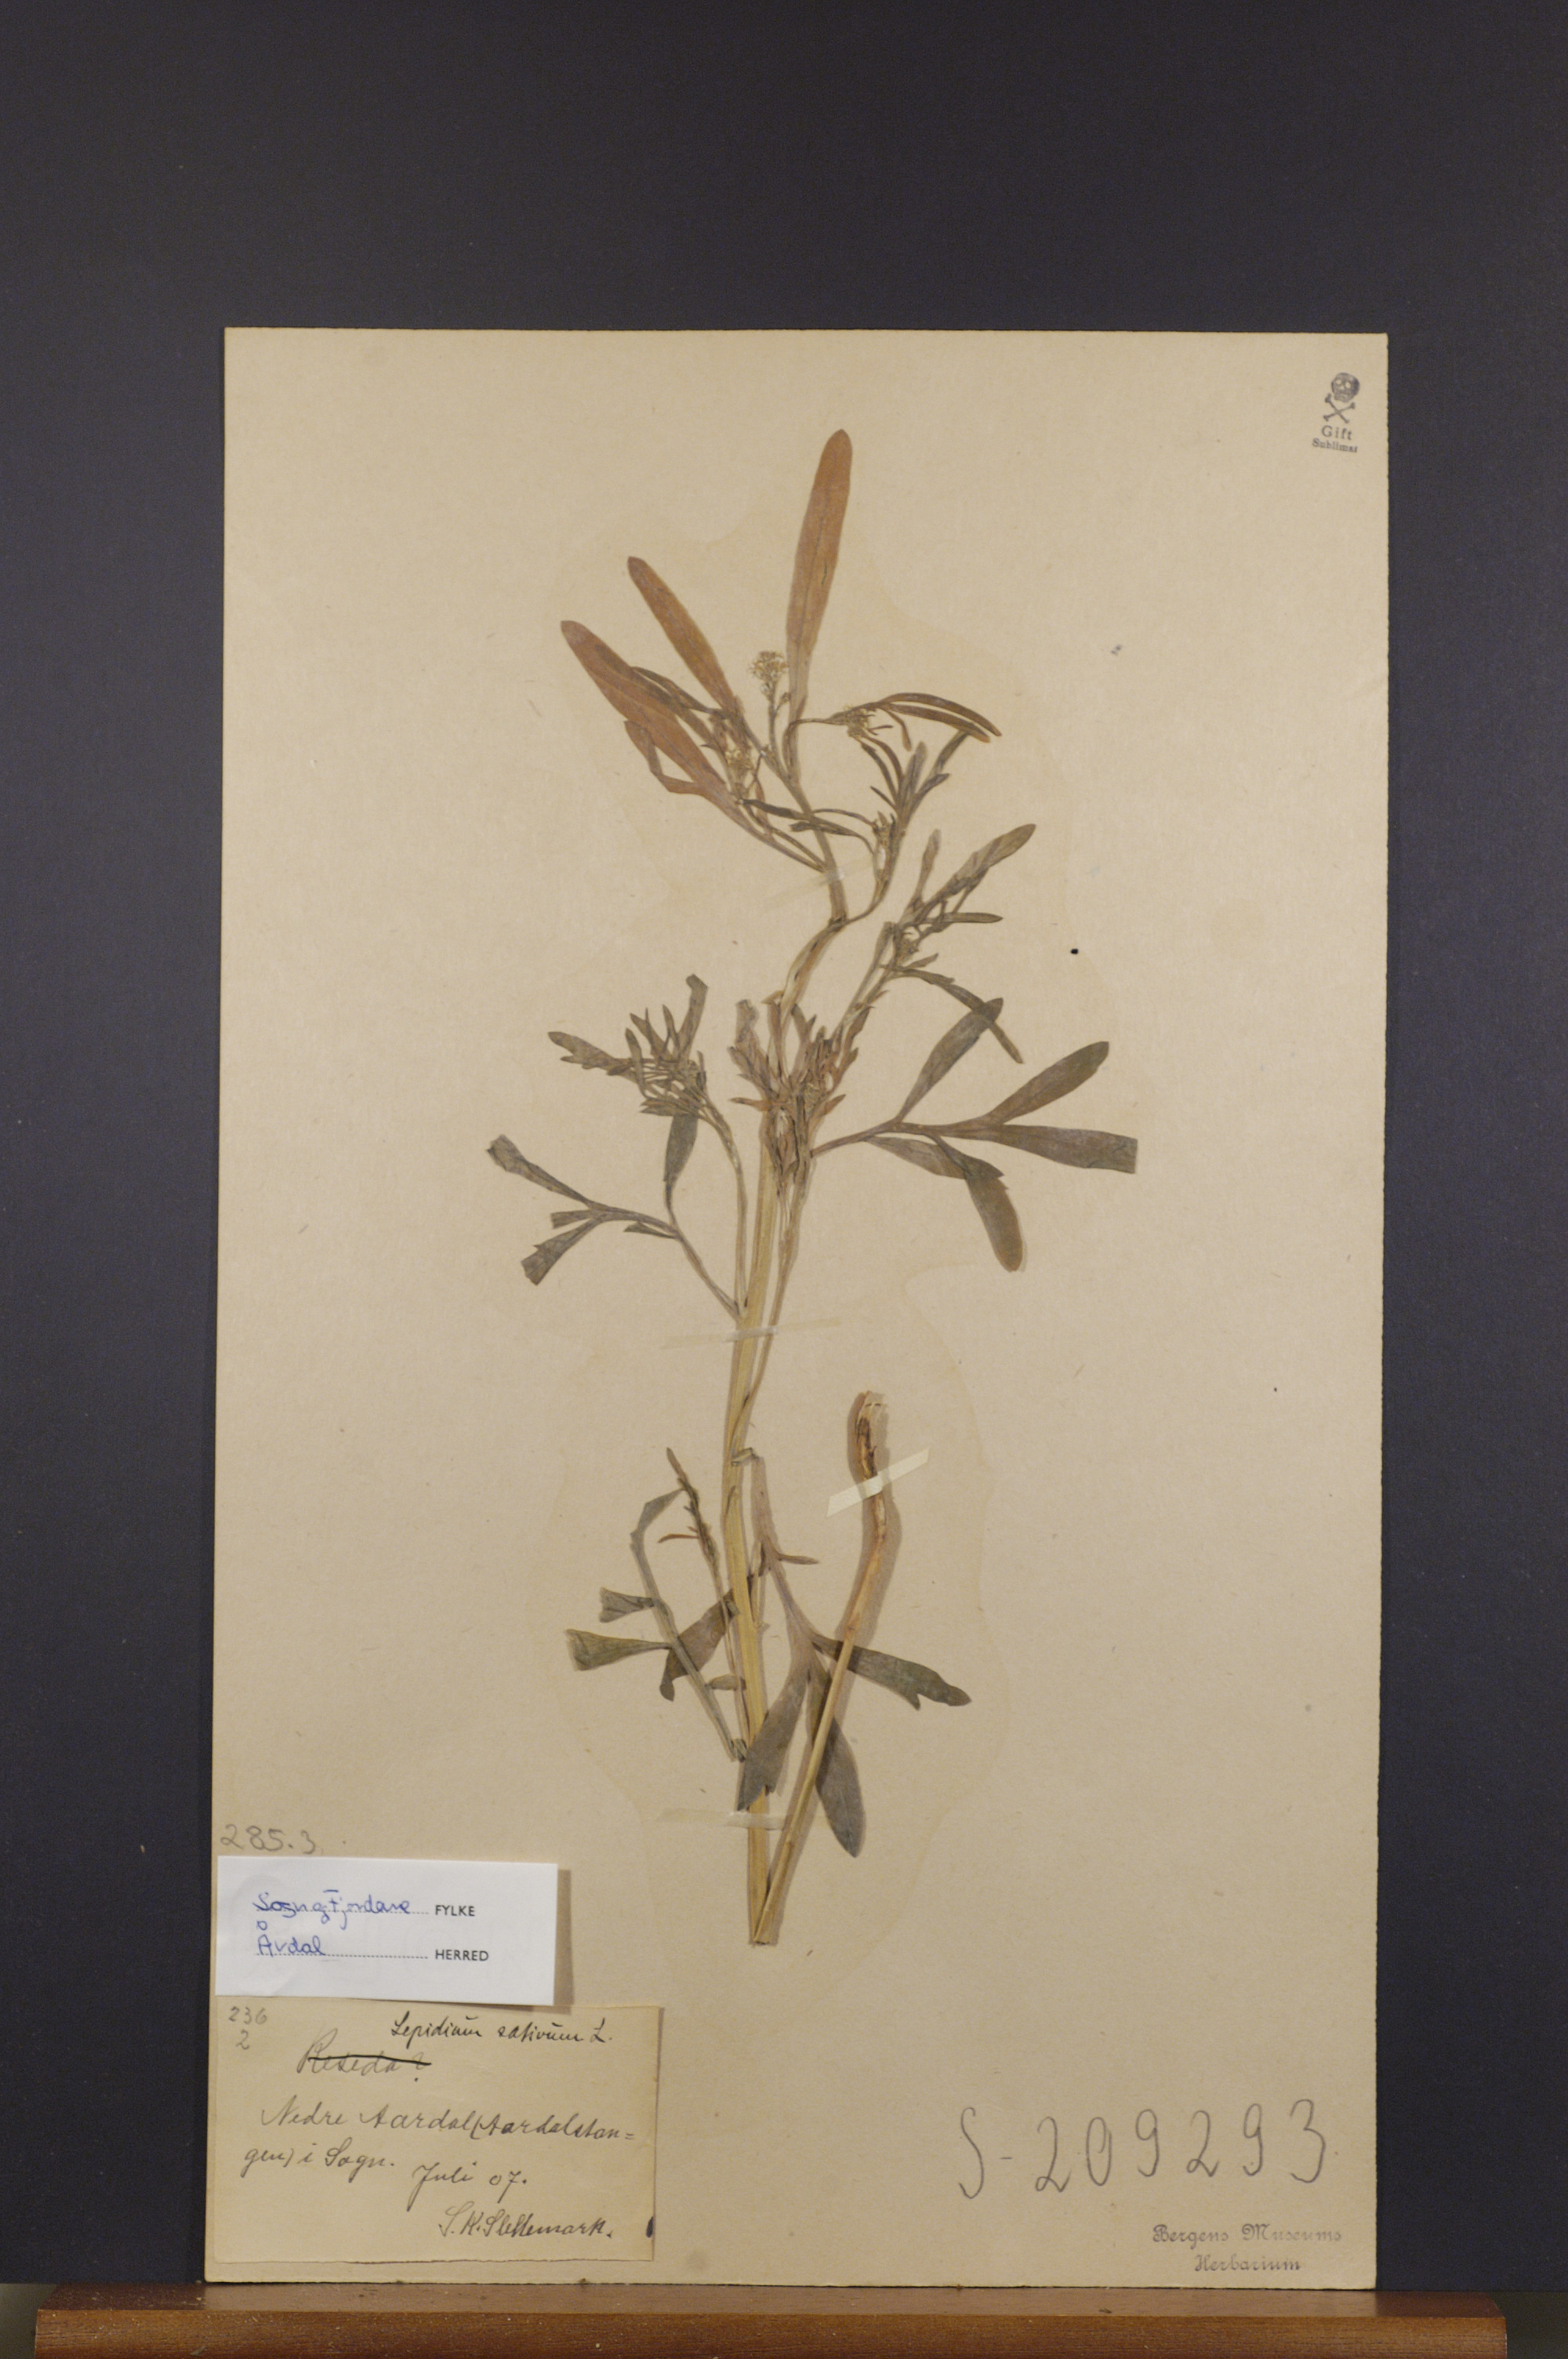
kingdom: Plantae
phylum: Tracheophyta
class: Magnoliopsida
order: Brassicales
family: Brassicaceae
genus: Lepidium
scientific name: Lepidium sativum
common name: Garden cress
